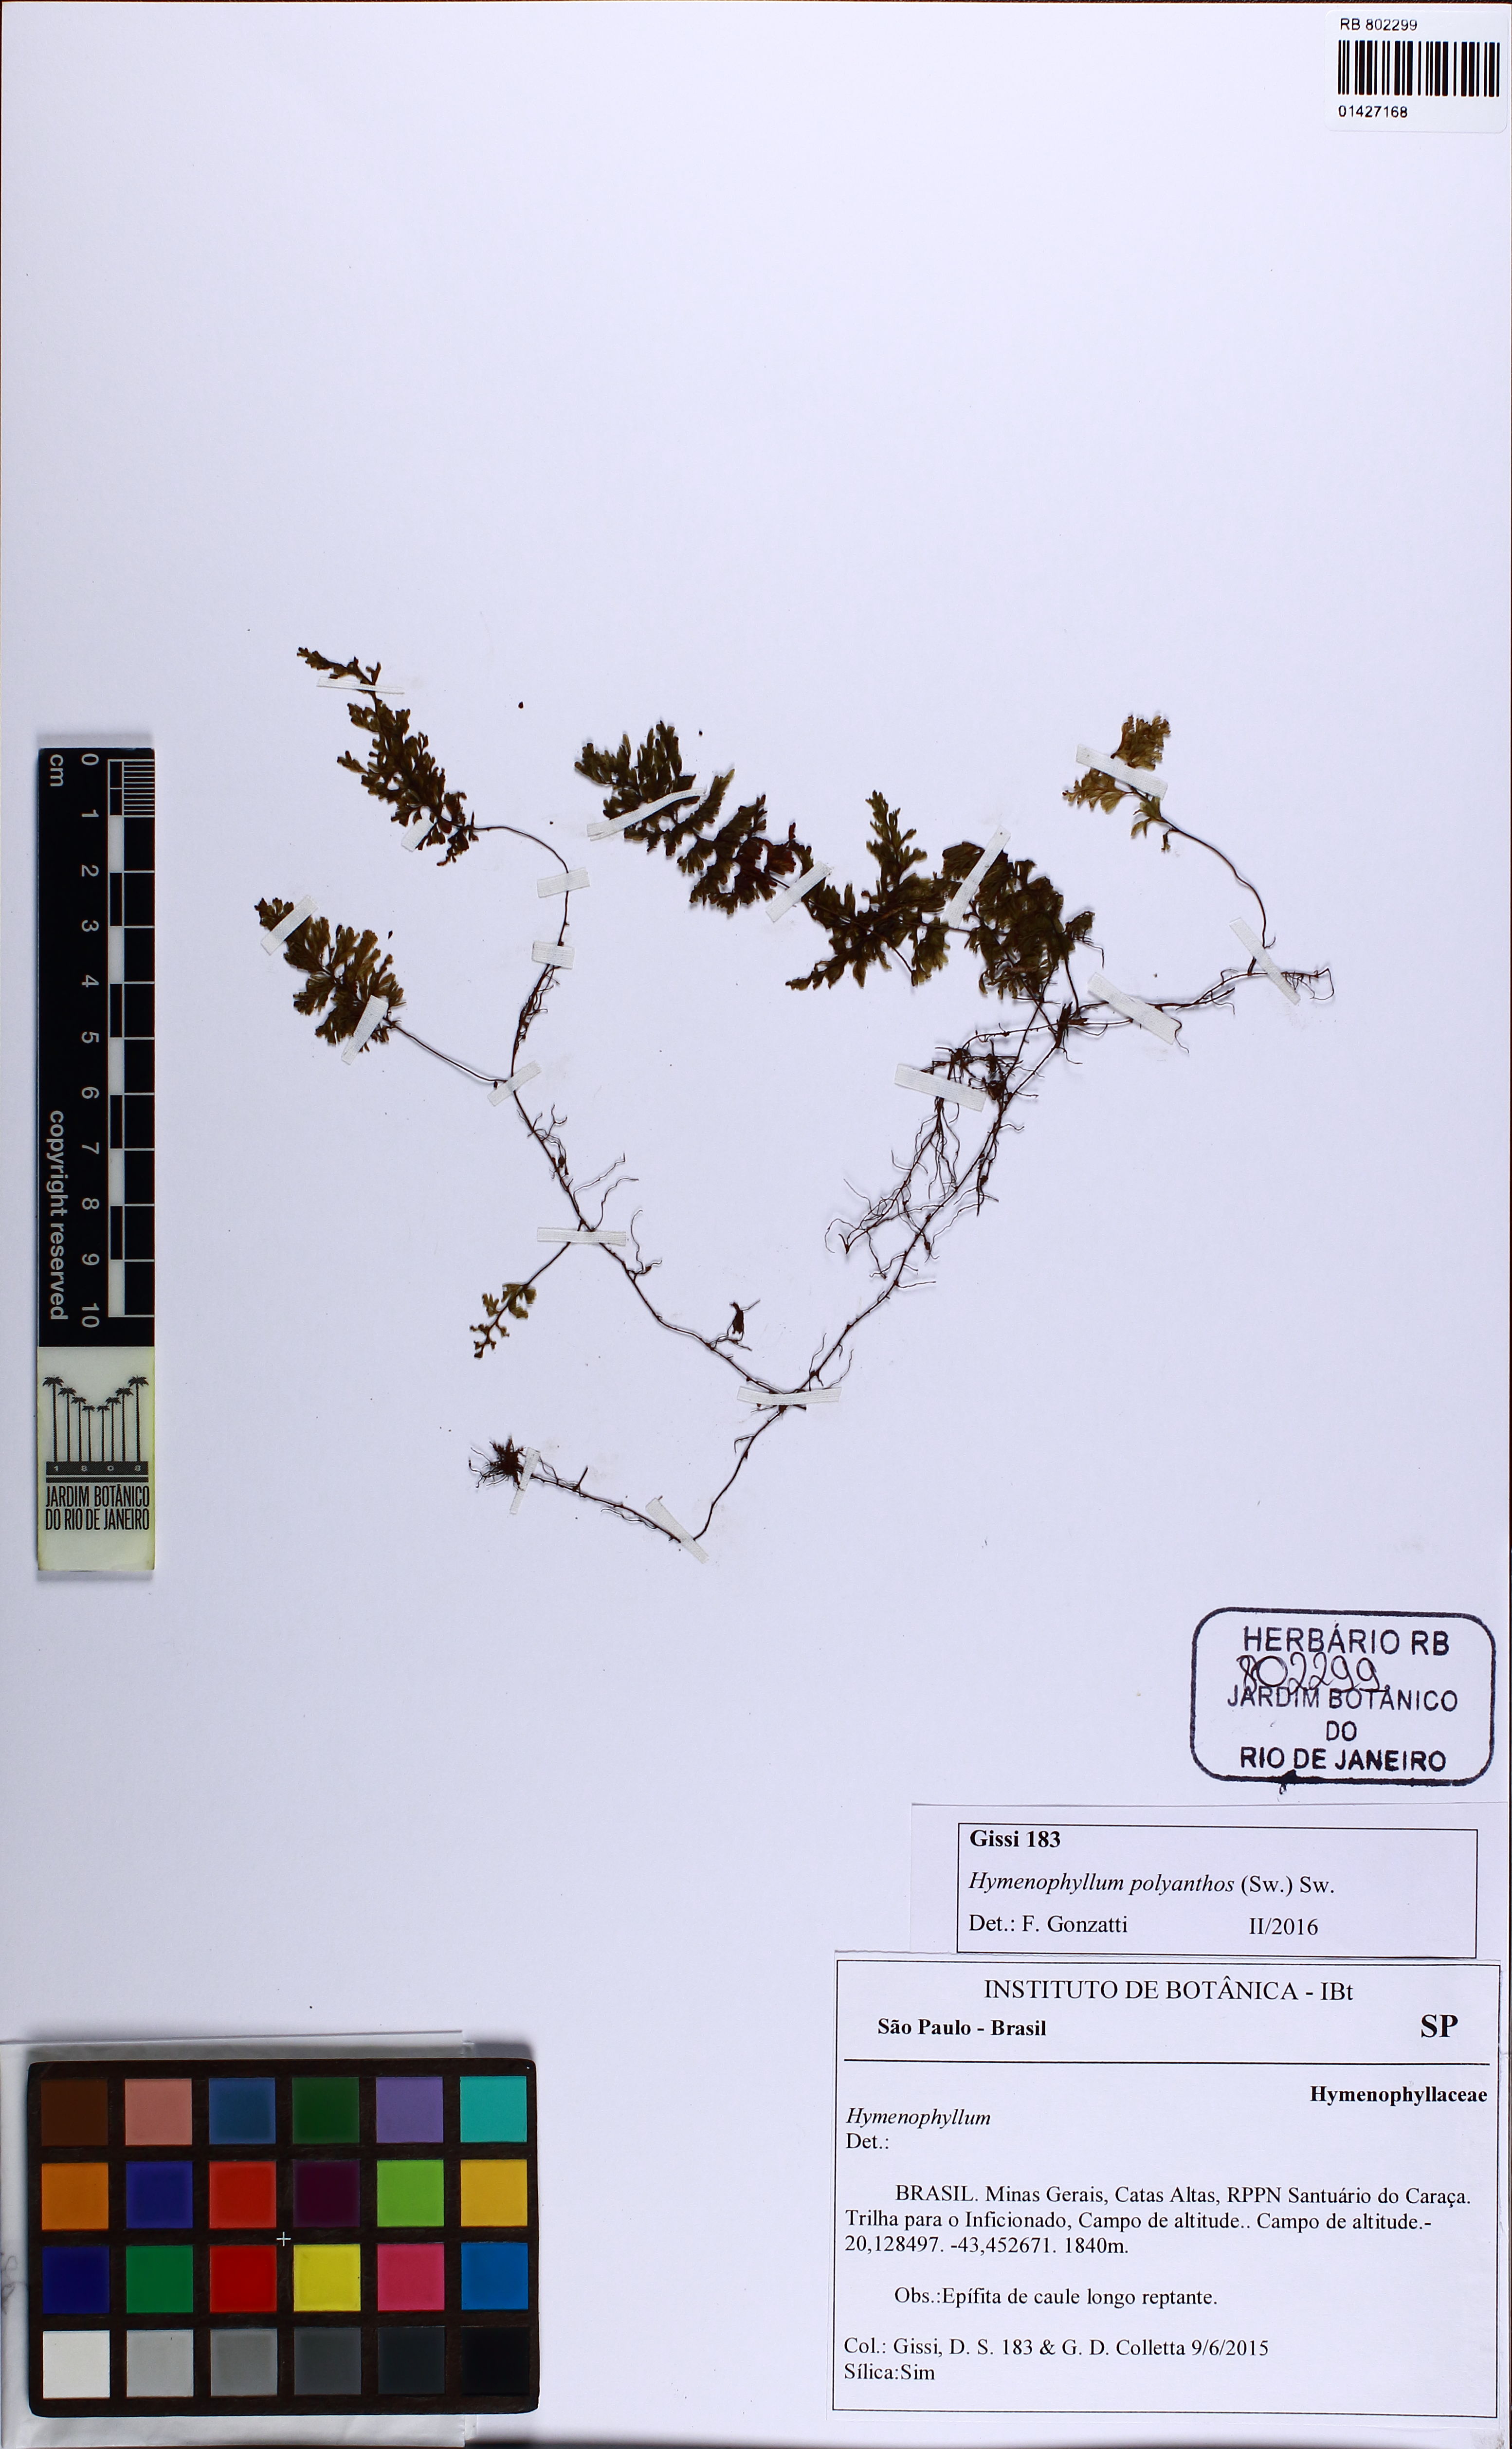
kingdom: Plantae
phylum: Tracheophyta
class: Polypodiopsida
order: Hymenophyllales
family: Hymenophyllaceae
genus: Hymenophyllum
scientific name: Hymenophyllum polyanthos
